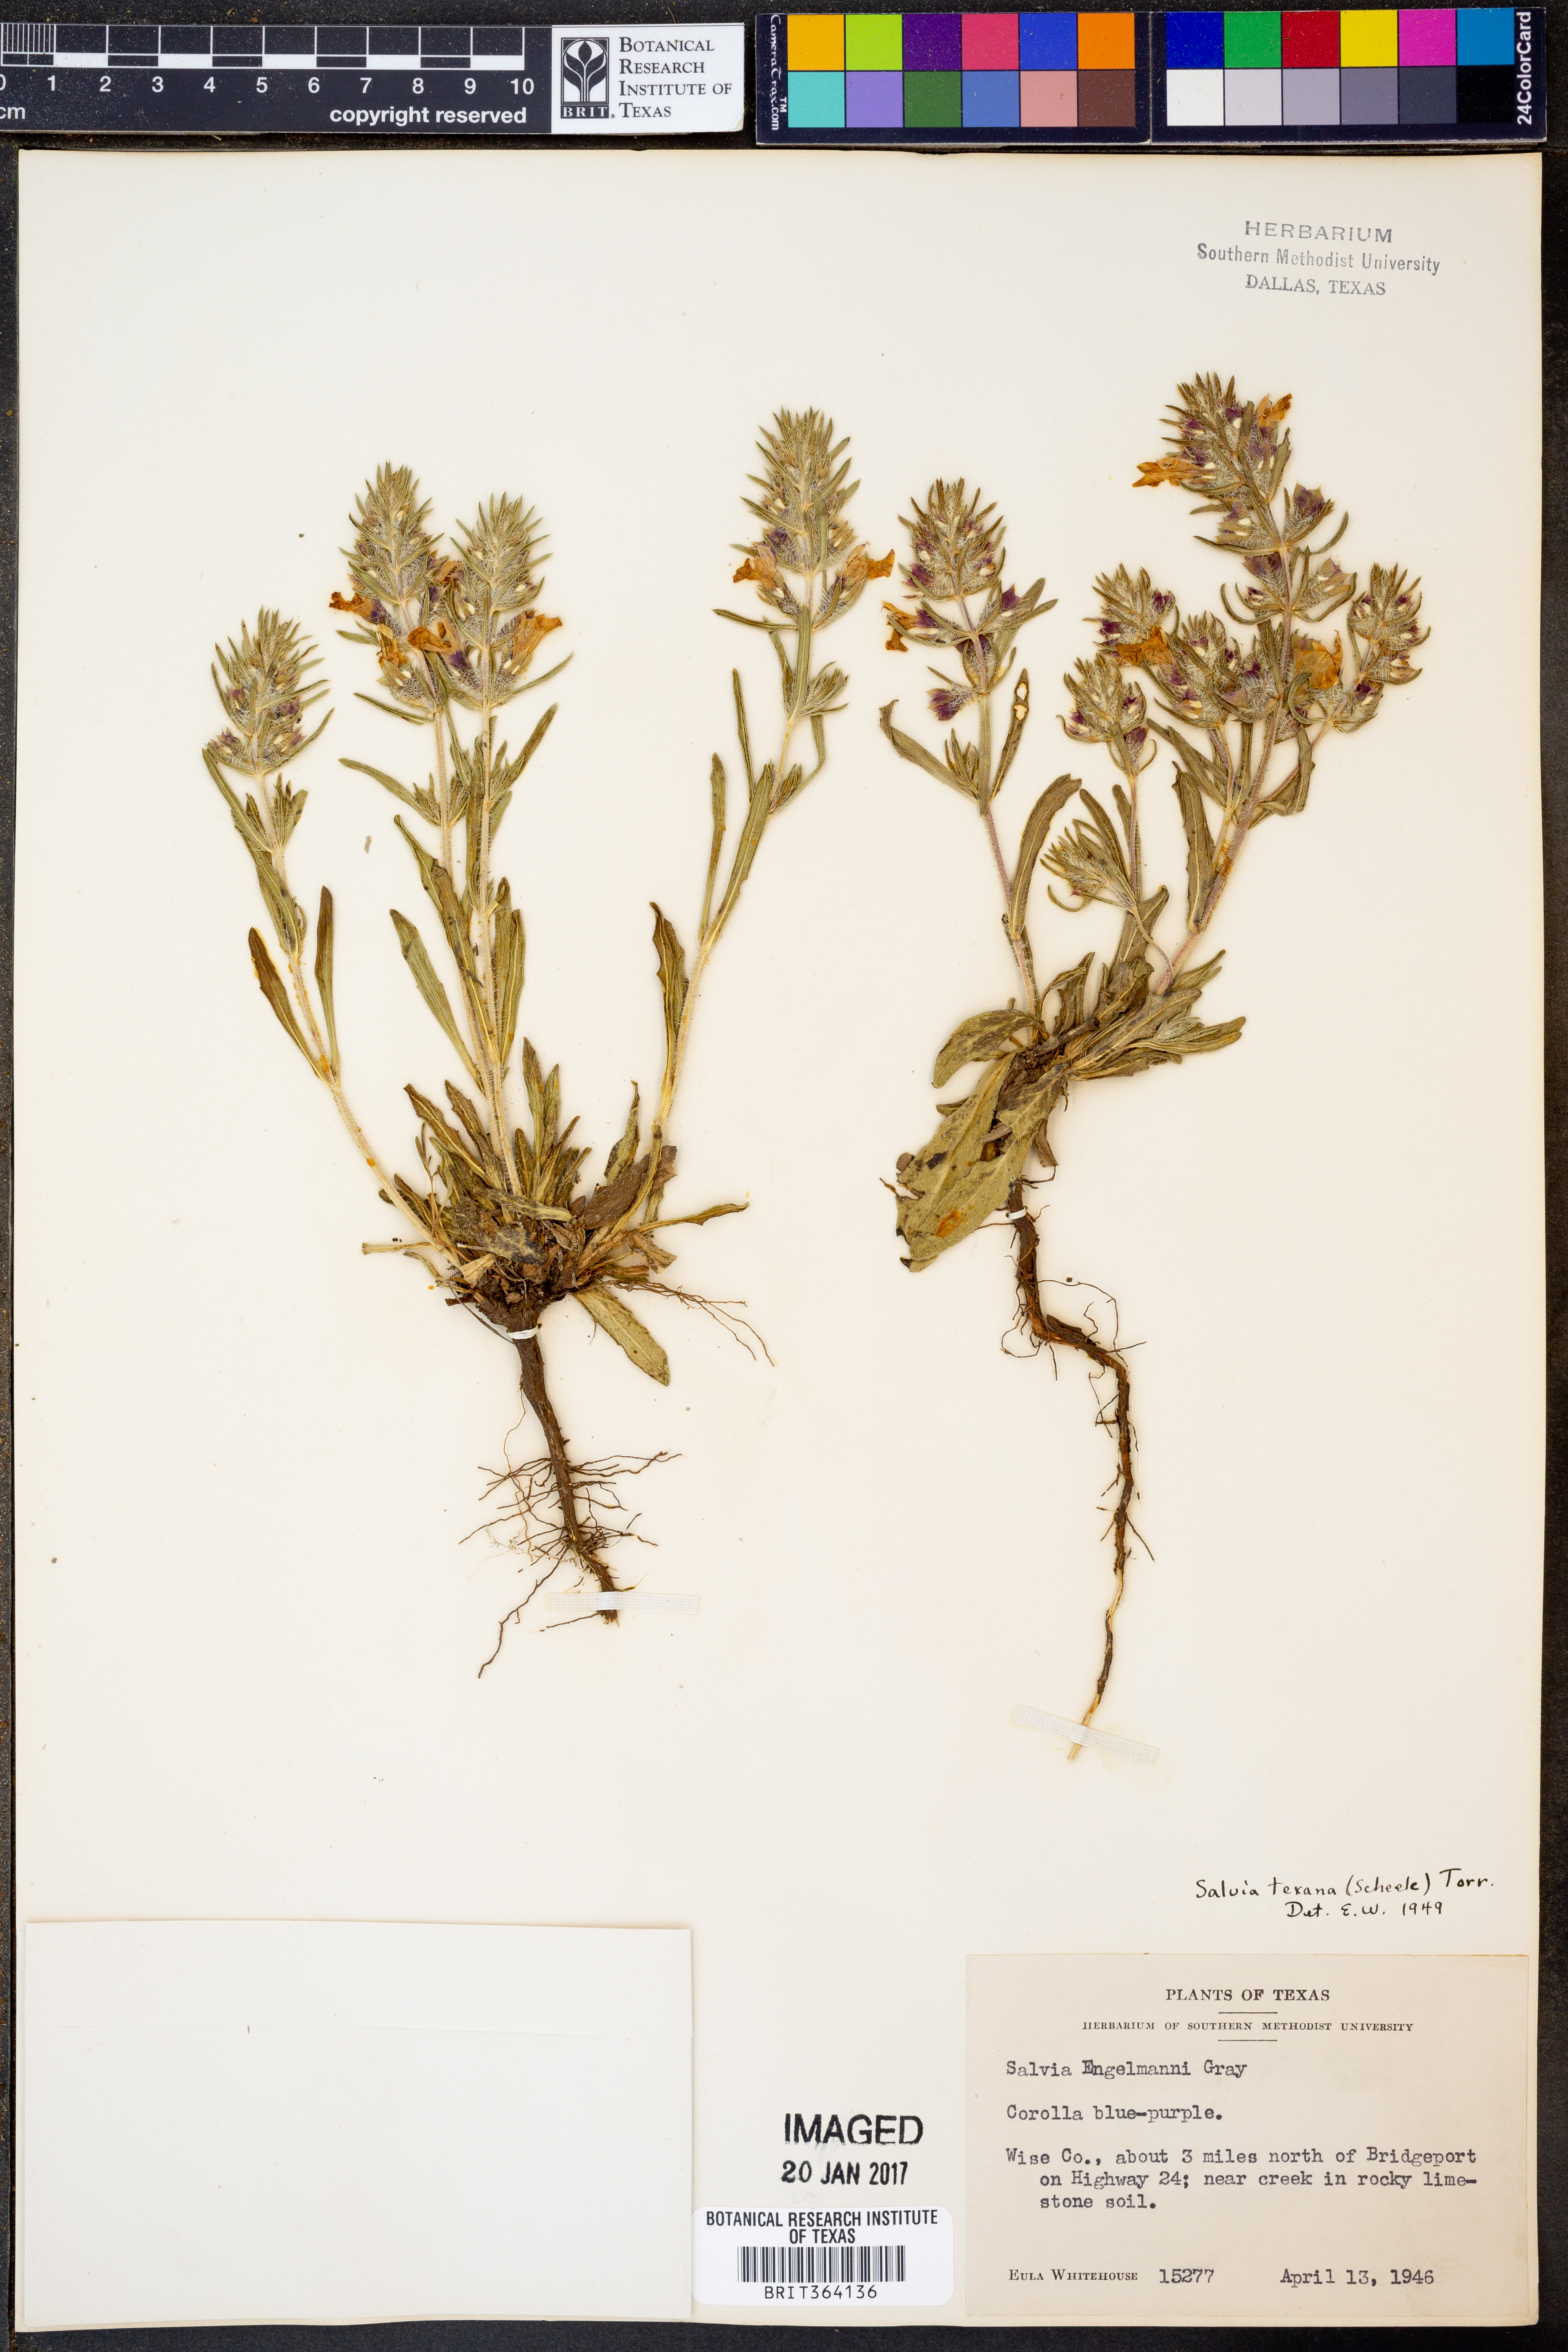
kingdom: Plantae
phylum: Tracheophyta
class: Magnoliopsida
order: Lamiales
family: Lamiaceae
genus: Salvia
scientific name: Salvia texana
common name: Texas sage
